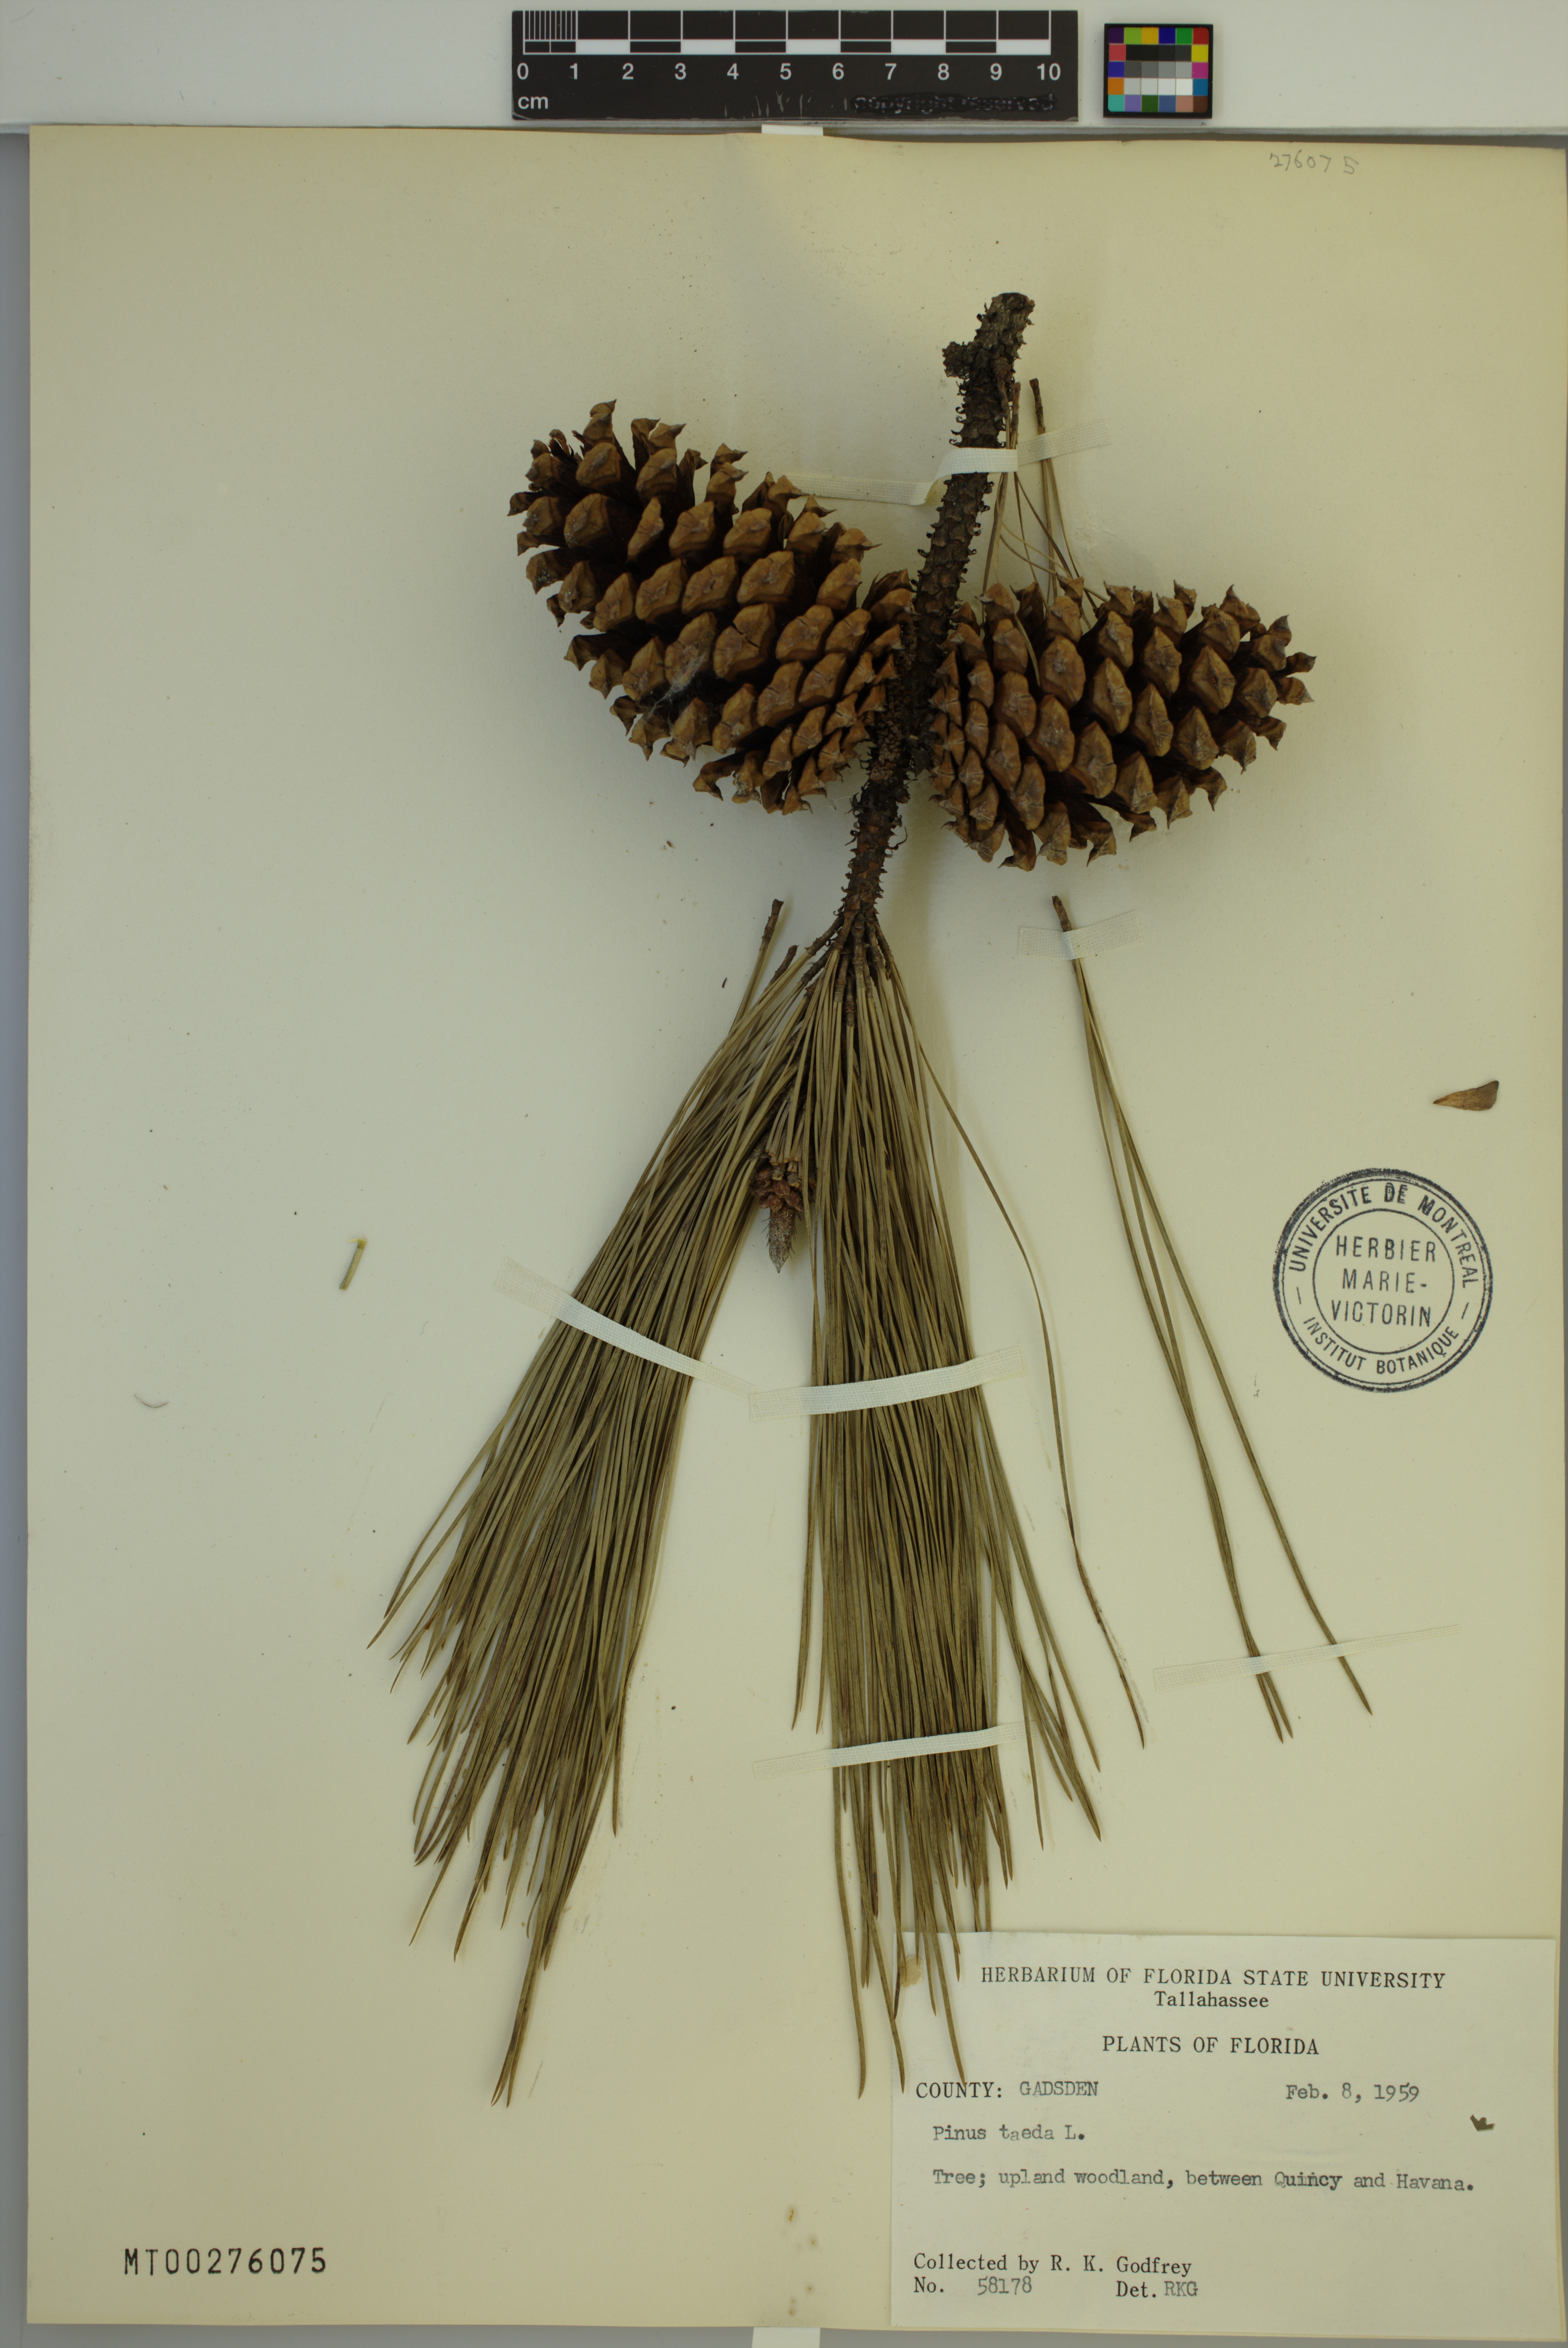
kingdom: Plantae
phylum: Tracheophyta
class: Pinopsida
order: Pinales
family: Pinaceae
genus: Pinus
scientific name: Pinus taeda
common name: Loblolly pine
